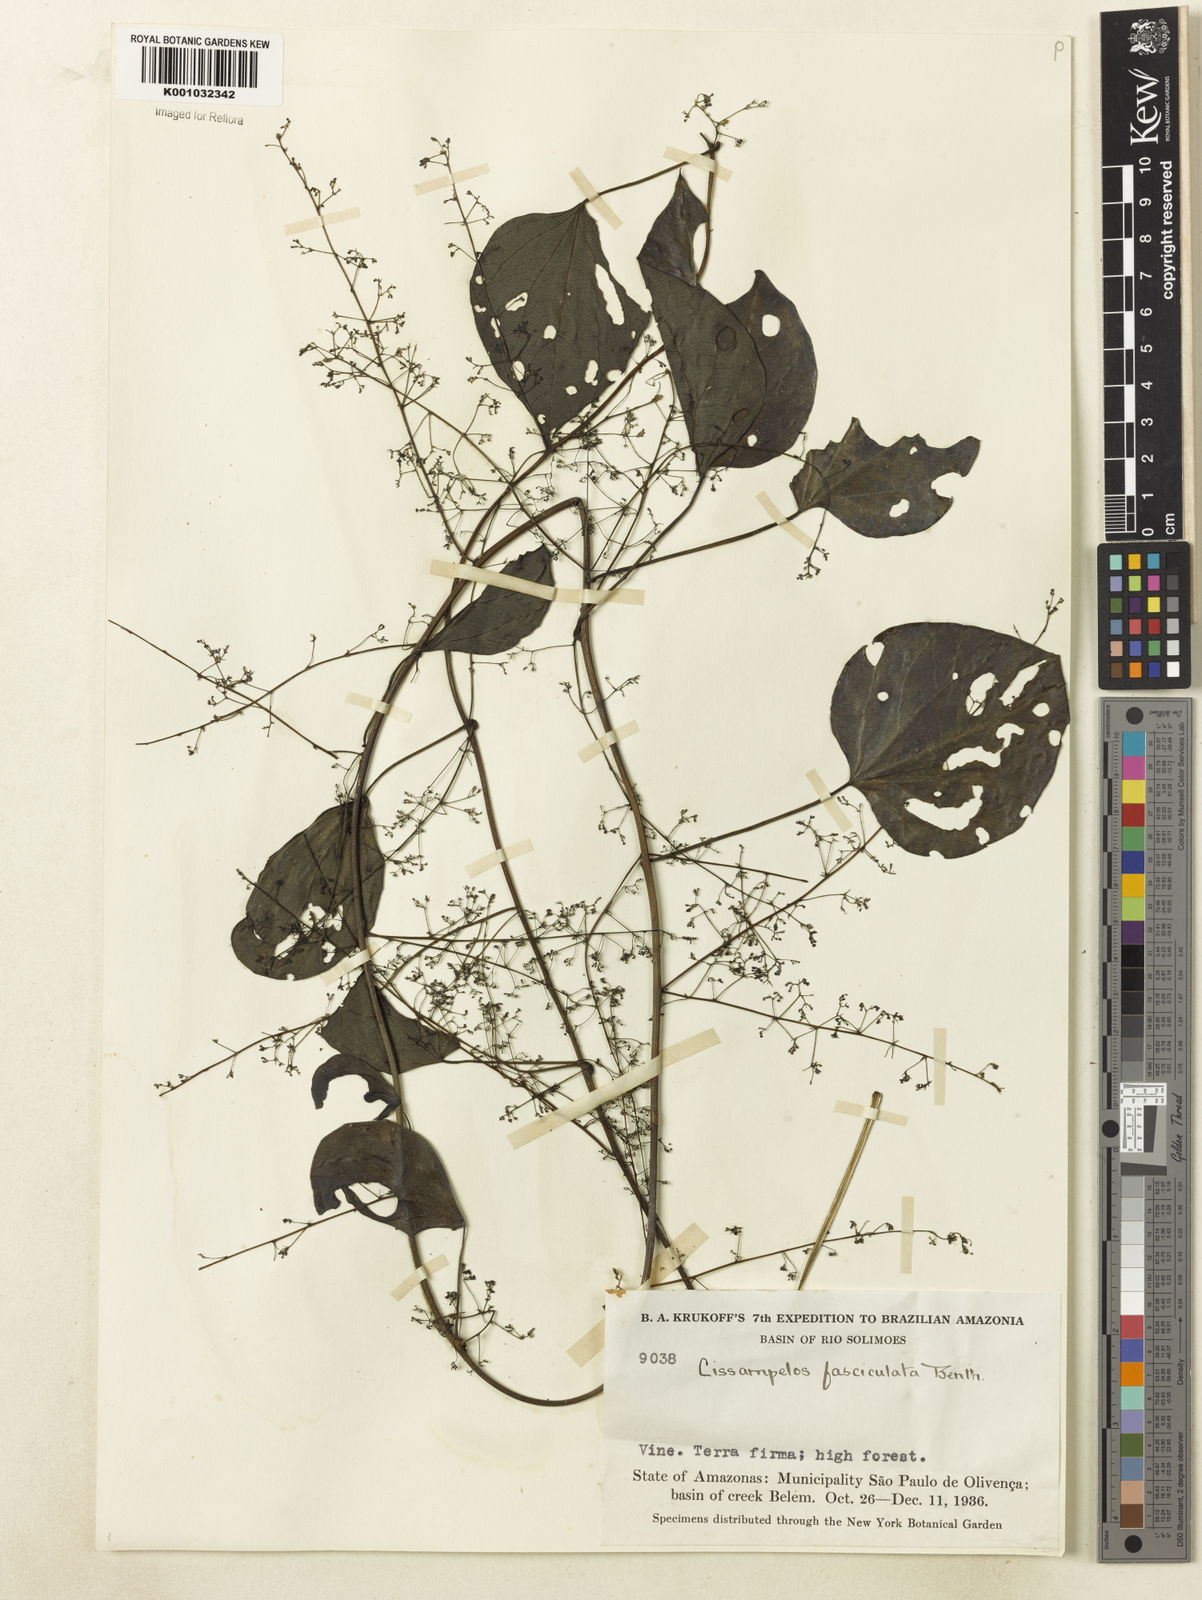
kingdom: Plantae
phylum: Tracheophyta
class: Magnoliopsida
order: Ranunculales
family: Menispermaceae
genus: Cissampelos
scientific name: Cissampelos fasciculata
